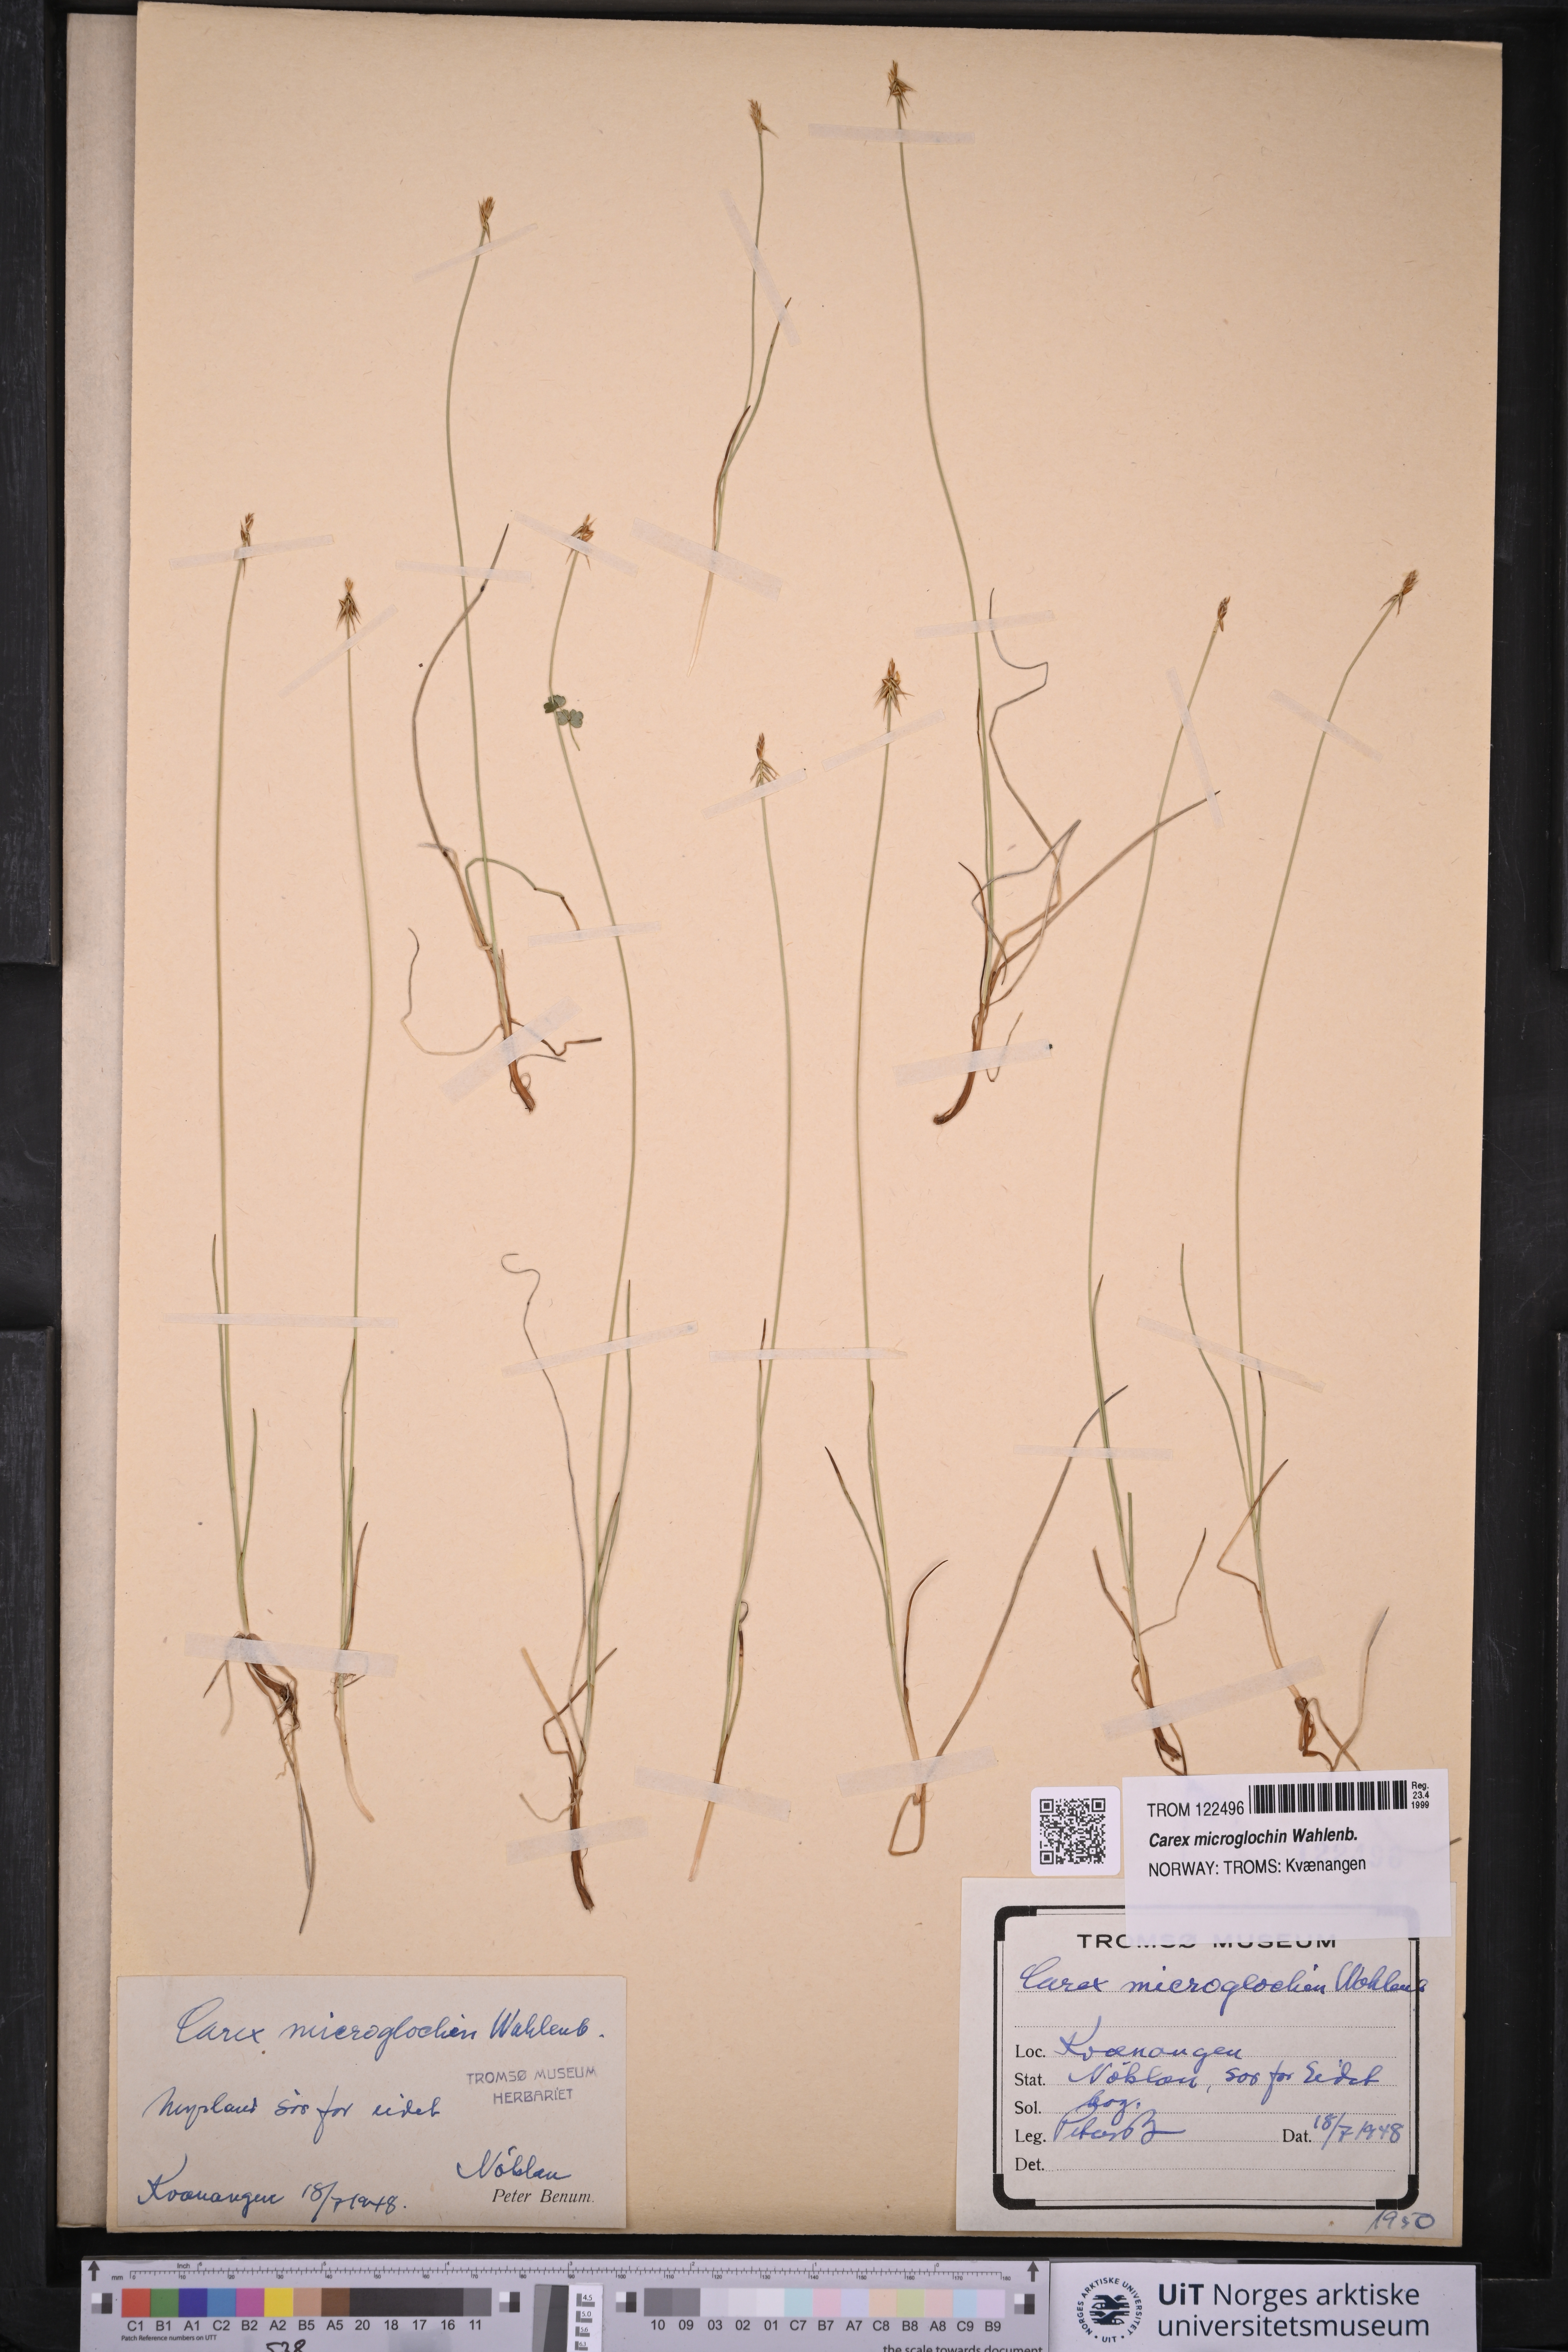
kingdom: Plantae
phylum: Tracheophyta
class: Liliopsida
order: Poales
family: Cyperaceae
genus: Carex
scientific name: Carex microglochin
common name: Bristle sedge
